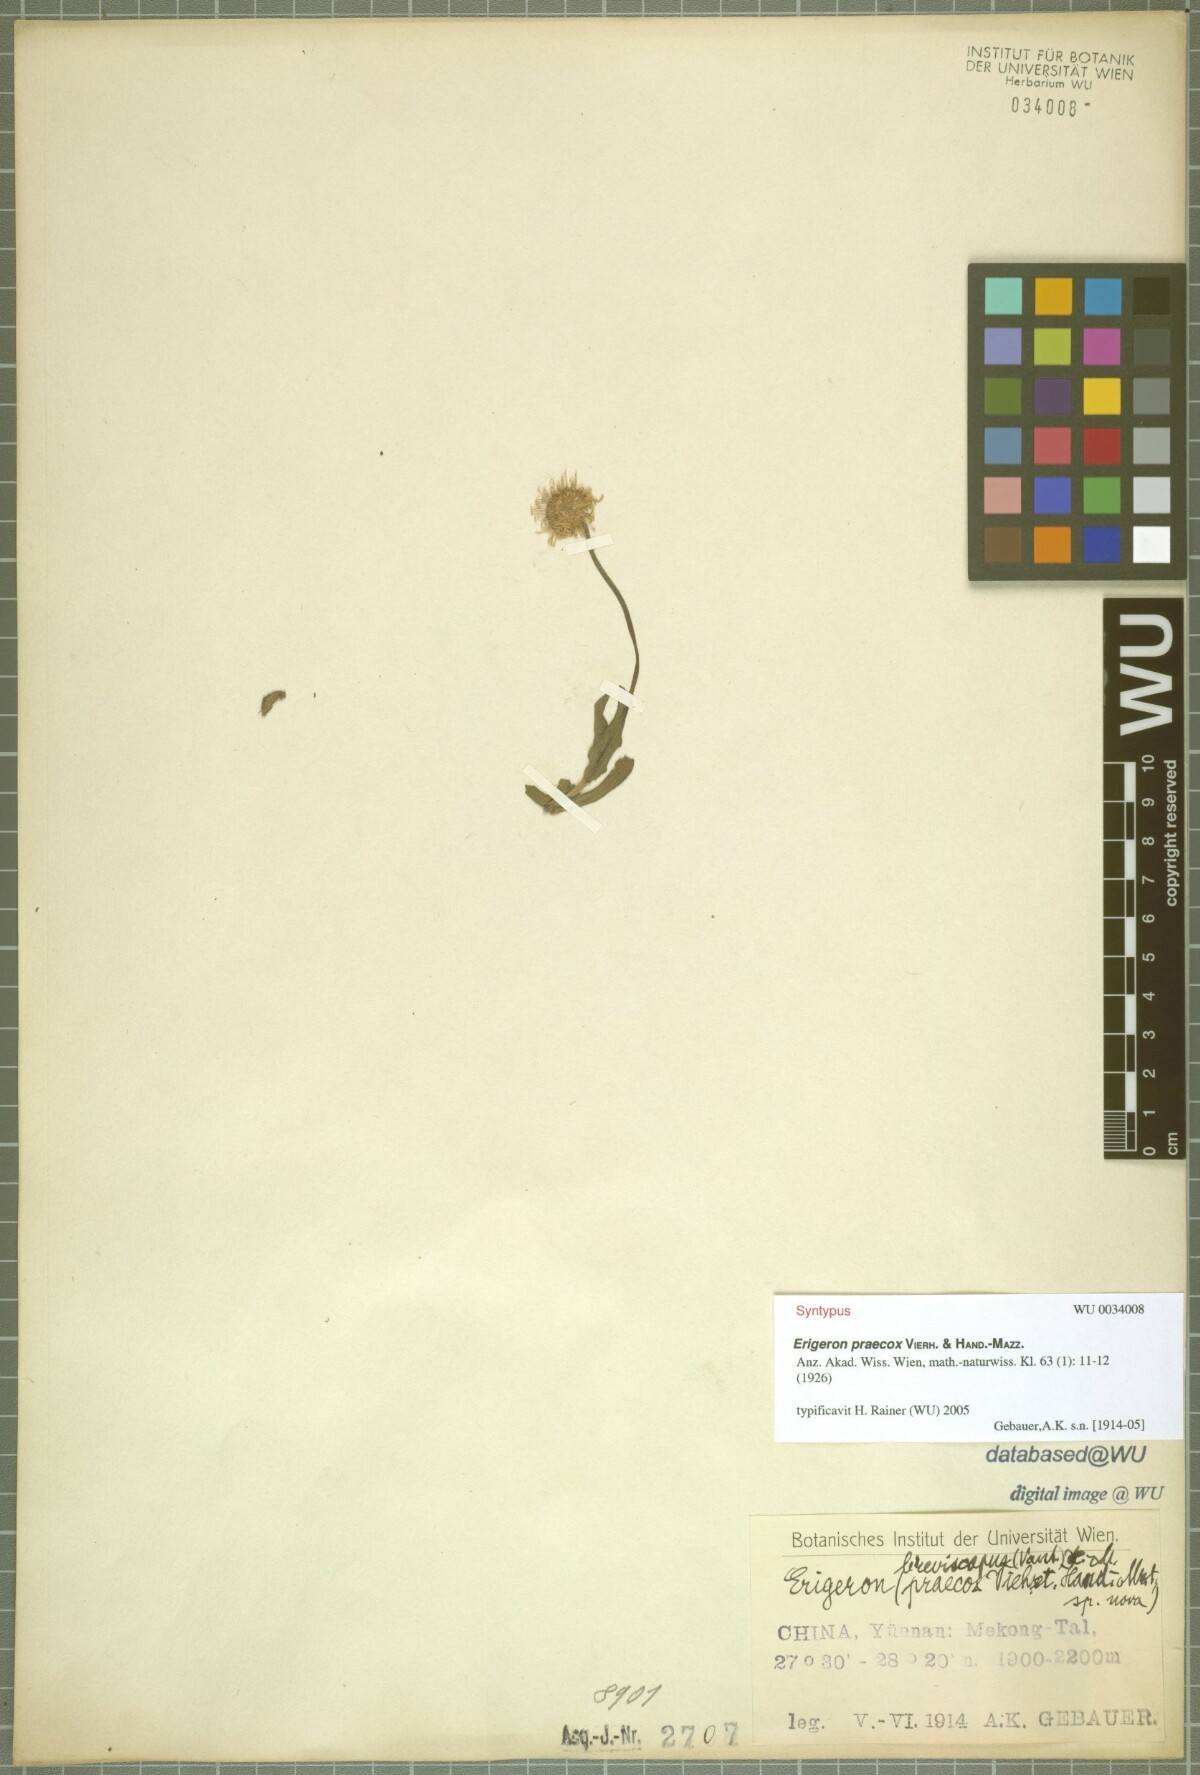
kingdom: Plantae
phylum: Tracheophyta
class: Magnoliopsida
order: Asterales
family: Asteraceae
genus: Erigeron
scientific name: Erigeron breviscapus
